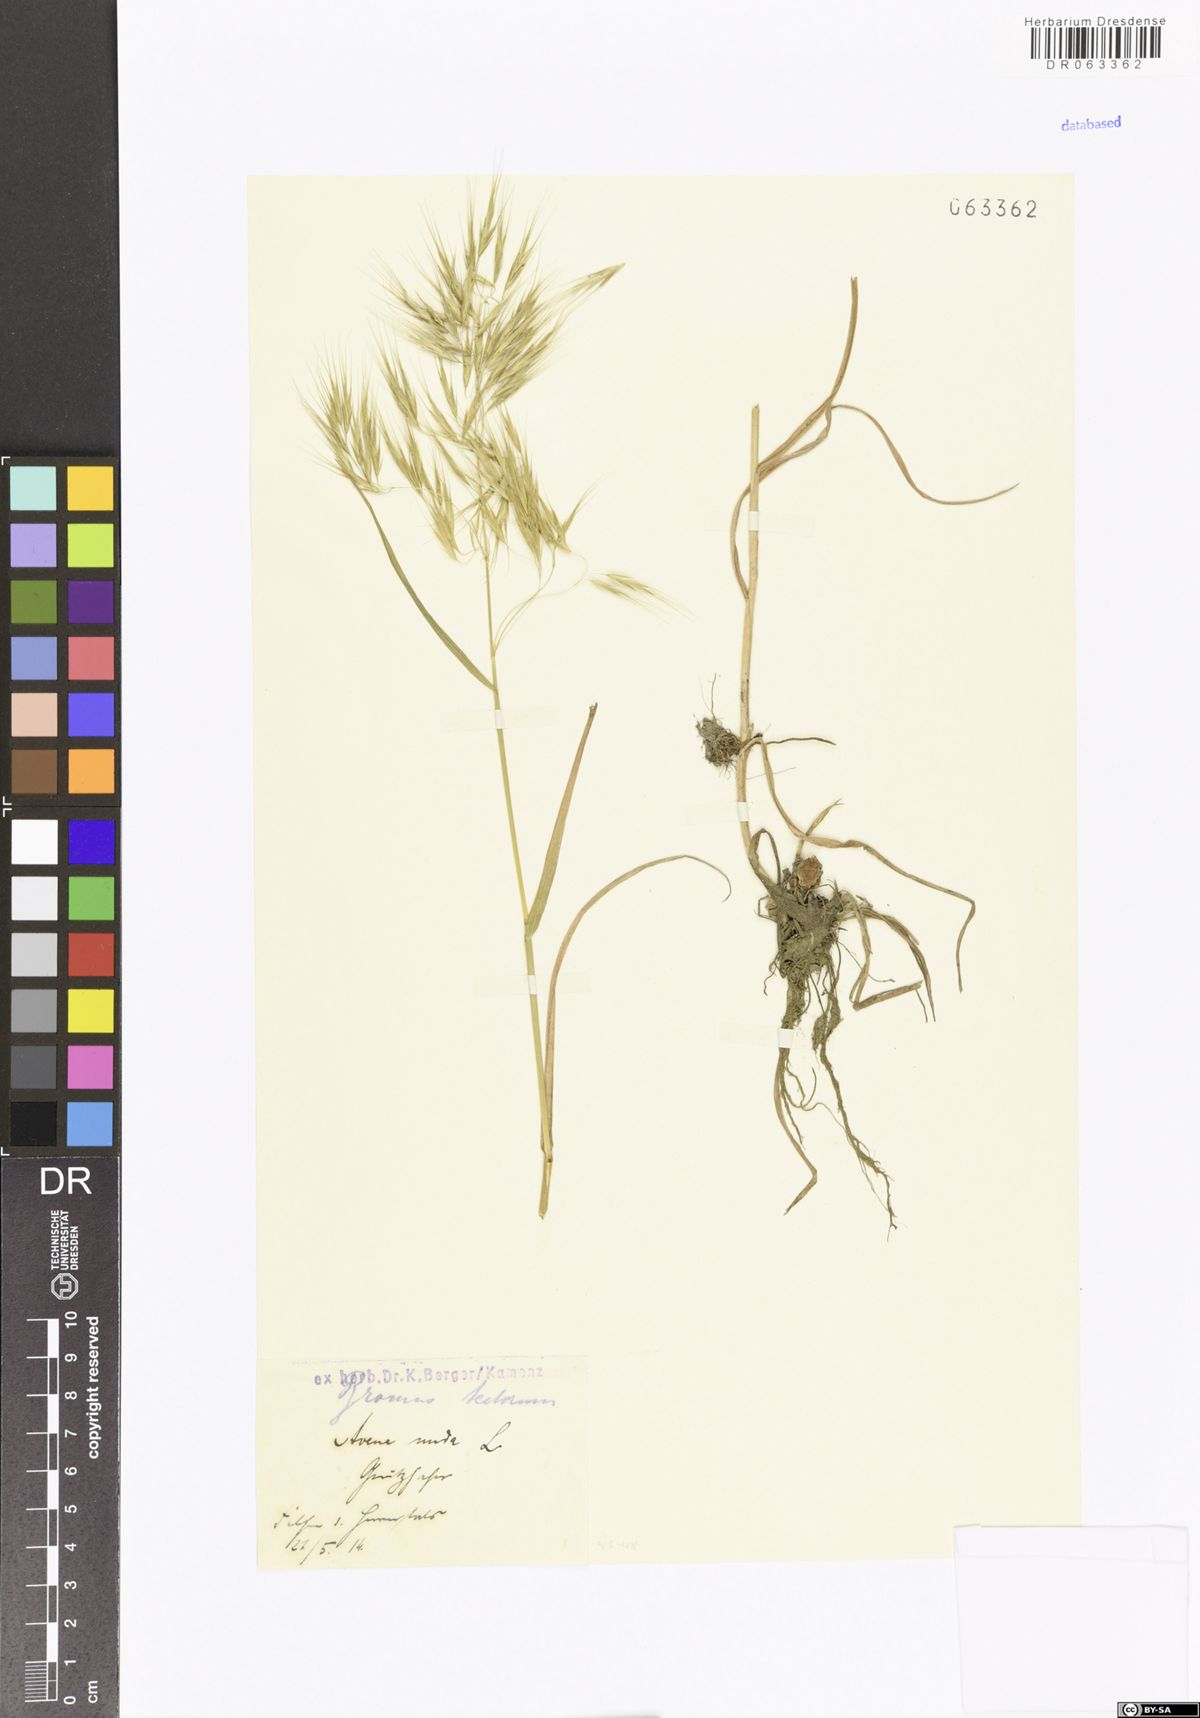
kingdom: Plantae
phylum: Tracheophyta
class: Liliopsida
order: Poales
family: Poaceae
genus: Bromus
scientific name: Bromus tectorum
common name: Cheatgrass
